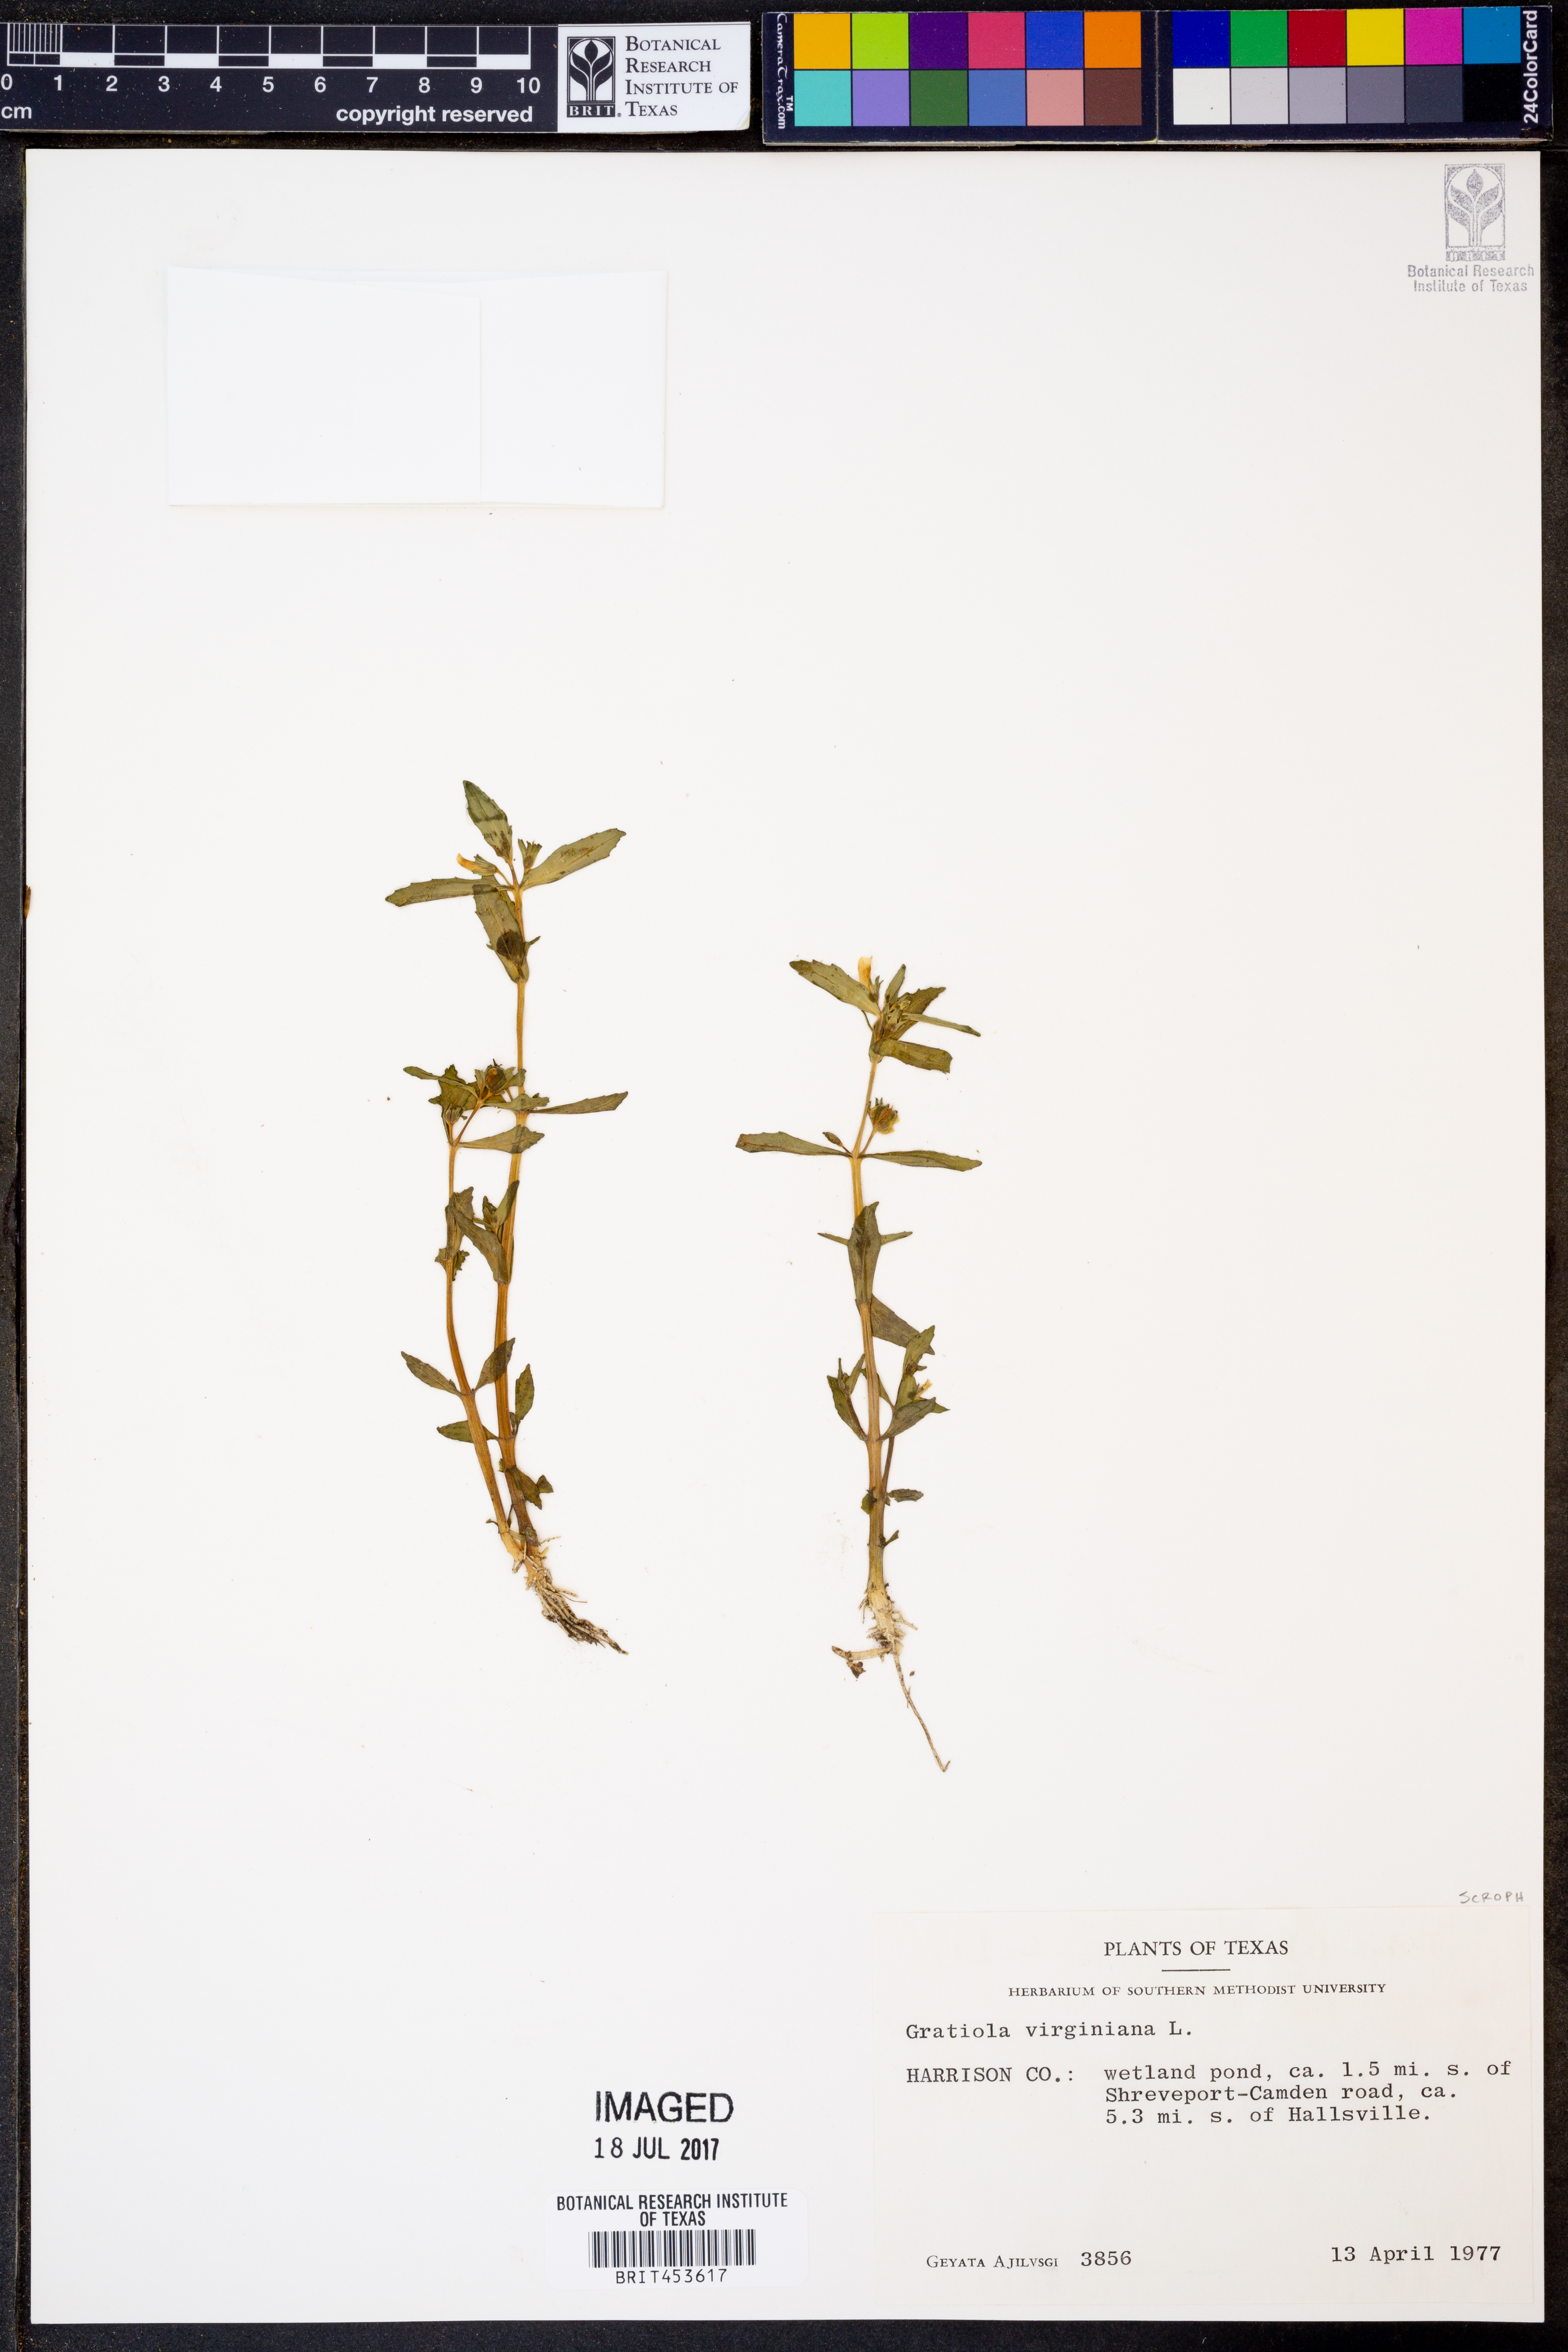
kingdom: Plantae
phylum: Tracheophyta
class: Magnoliopsida
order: Lamiales
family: Plantaginaceae
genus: Gratiola
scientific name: Gratiola virginiana
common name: Roundfruit hedgehyssop
